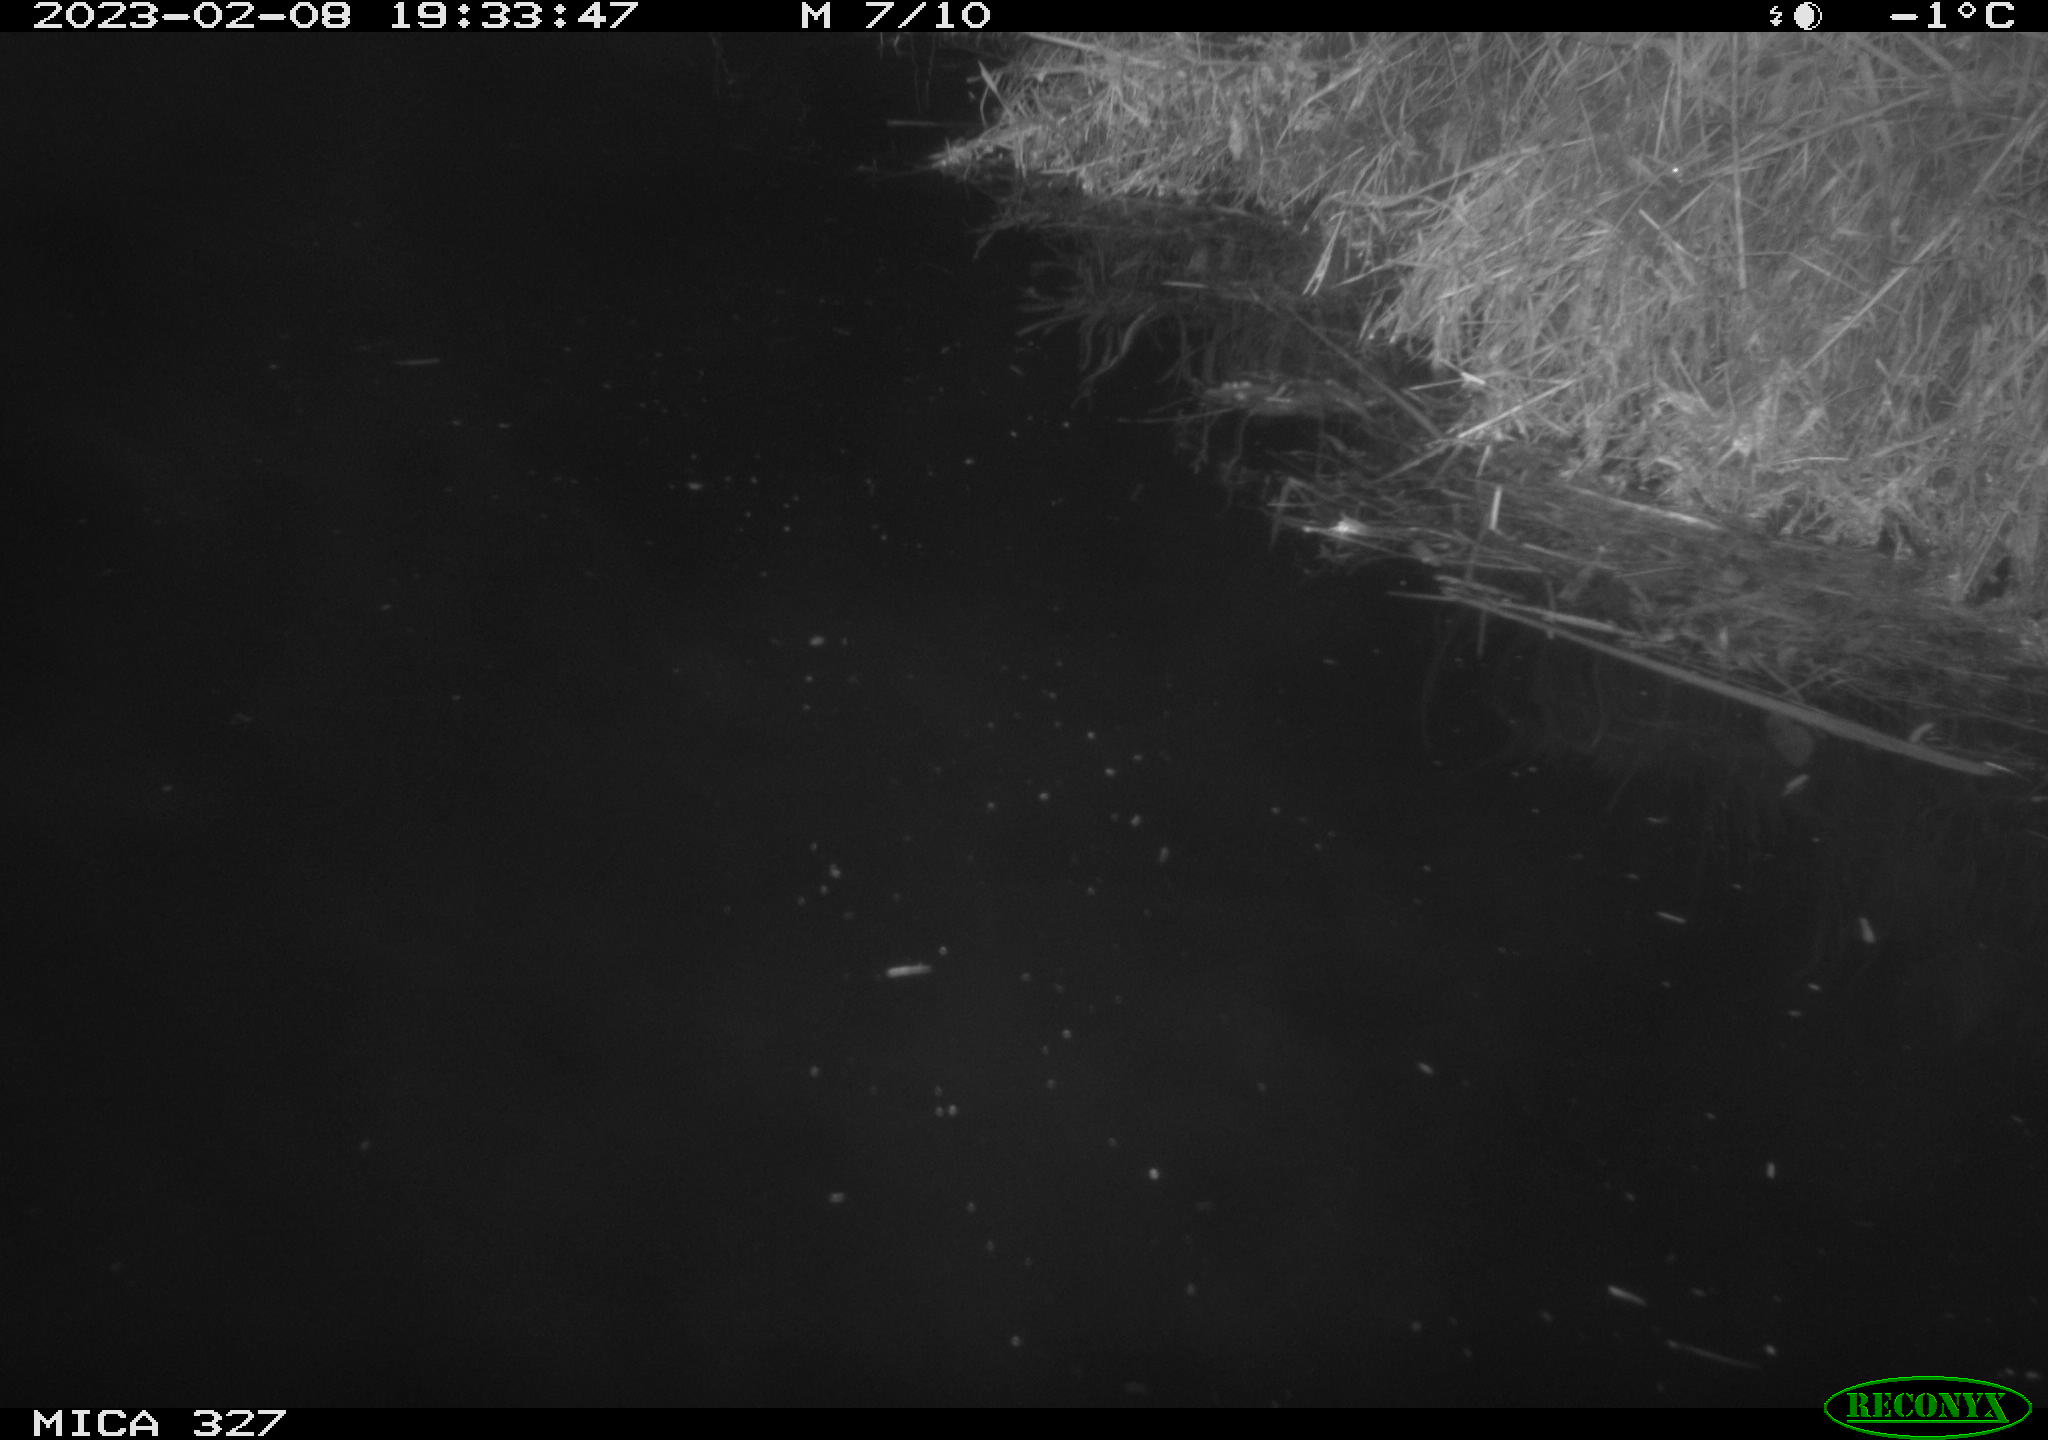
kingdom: Animalia
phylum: Chordata
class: Mammalia
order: Rodentia
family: Cricetidae
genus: Ondatra
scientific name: Ondatra zibethicus
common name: Muskrat
